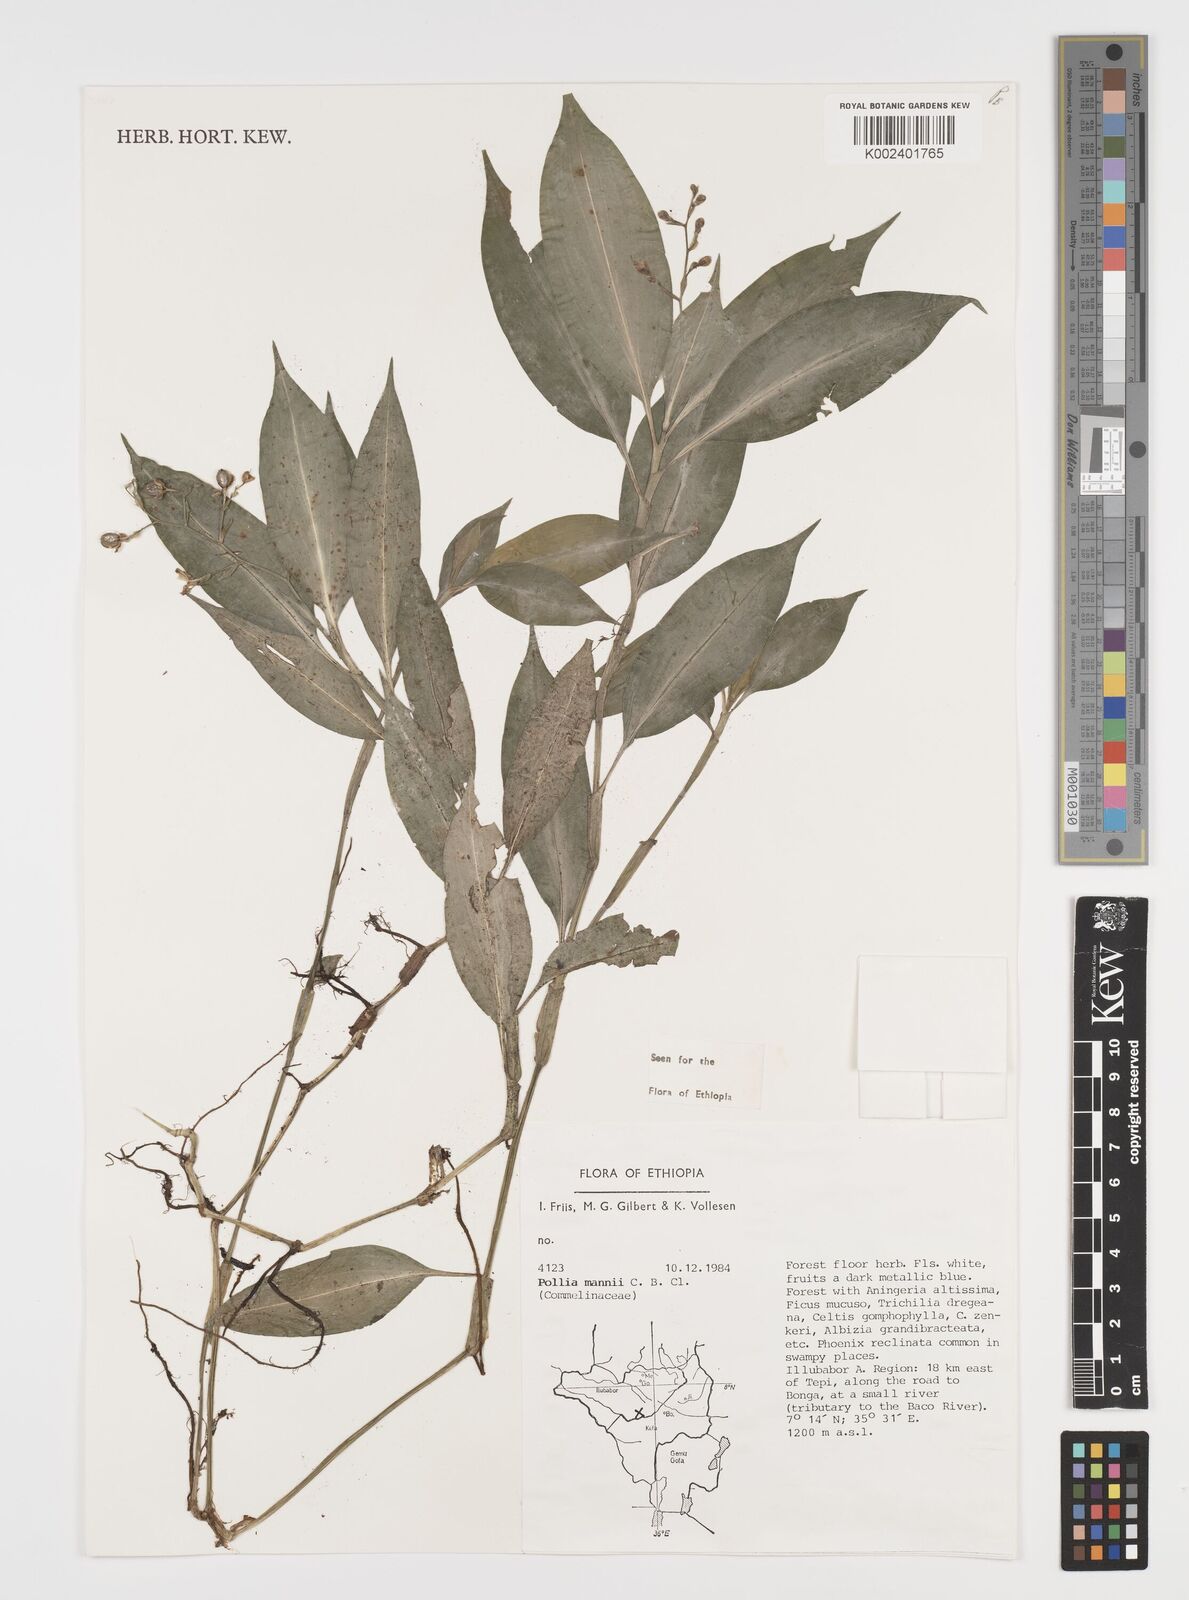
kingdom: Plantae
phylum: Tracheophyta
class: Liliopsida
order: Commelinales
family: Commelinaceae
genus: Pollia
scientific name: Pollia mannii
